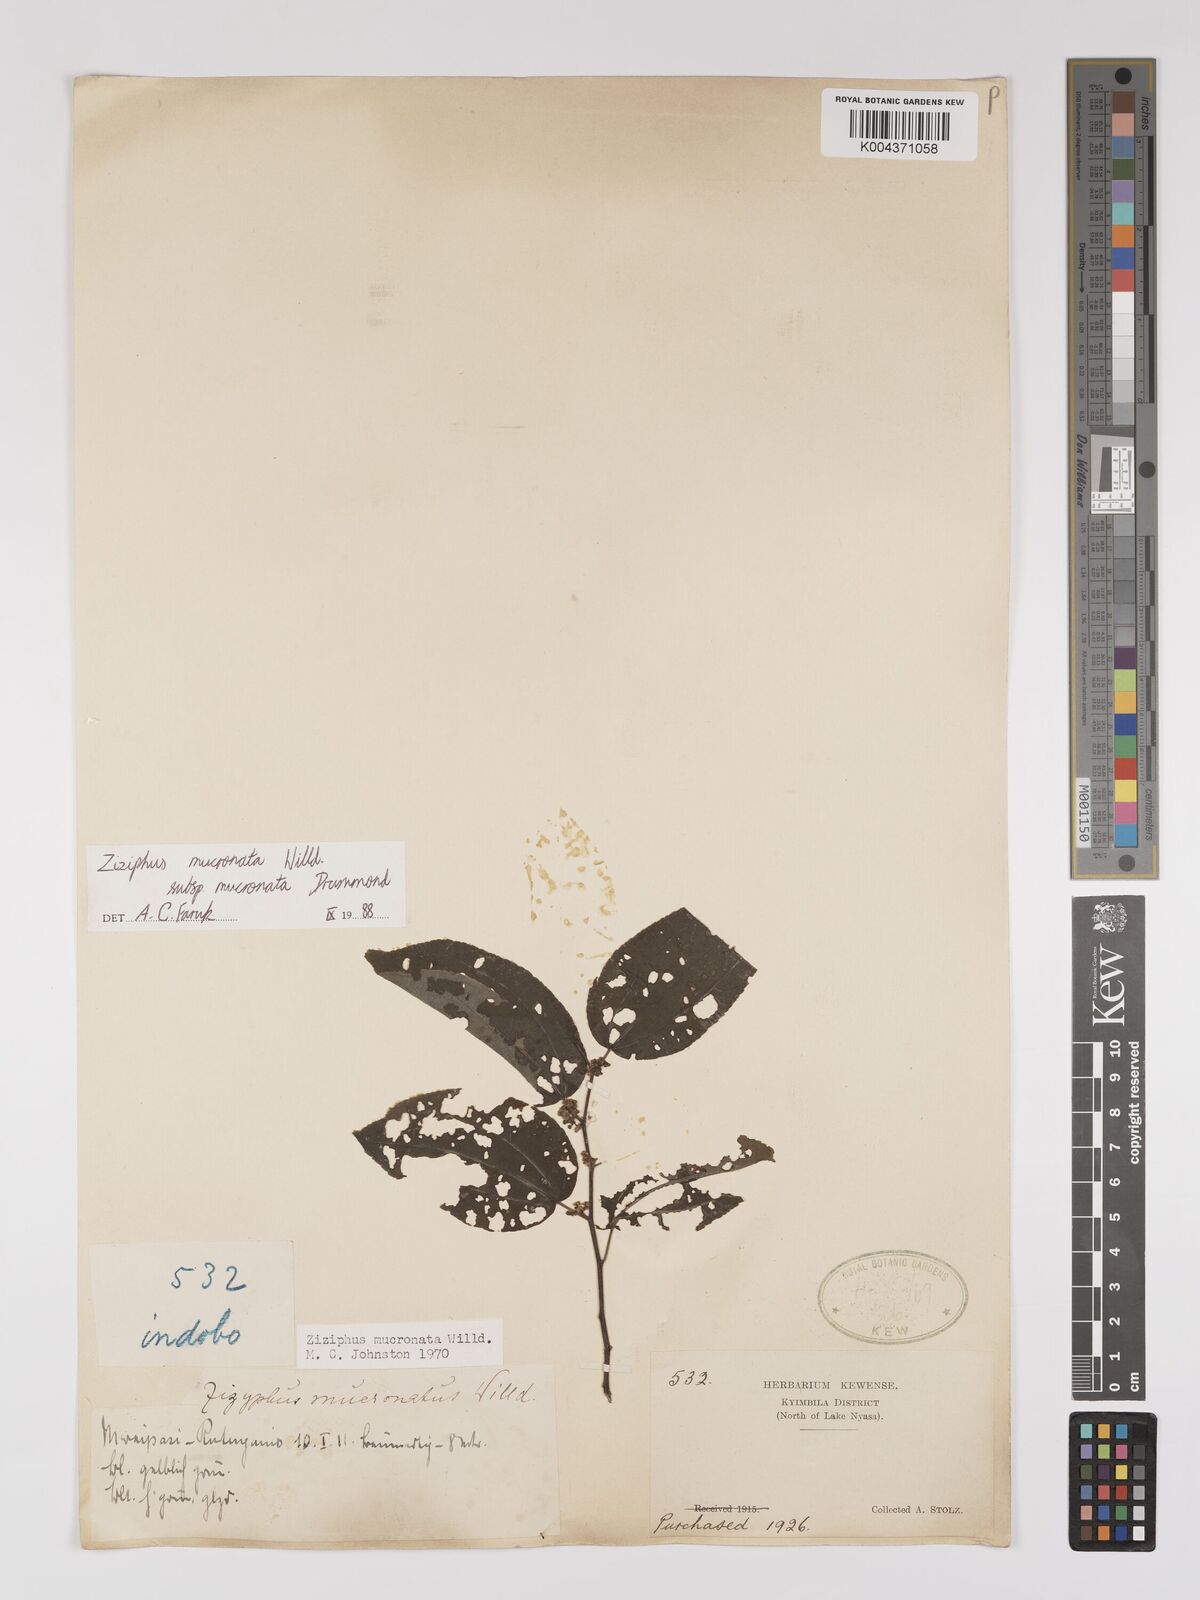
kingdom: Plantae
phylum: Tracheophyta
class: Magnoliopsida
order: Rosales
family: Rhamnaceae
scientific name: Rhamnaceae
